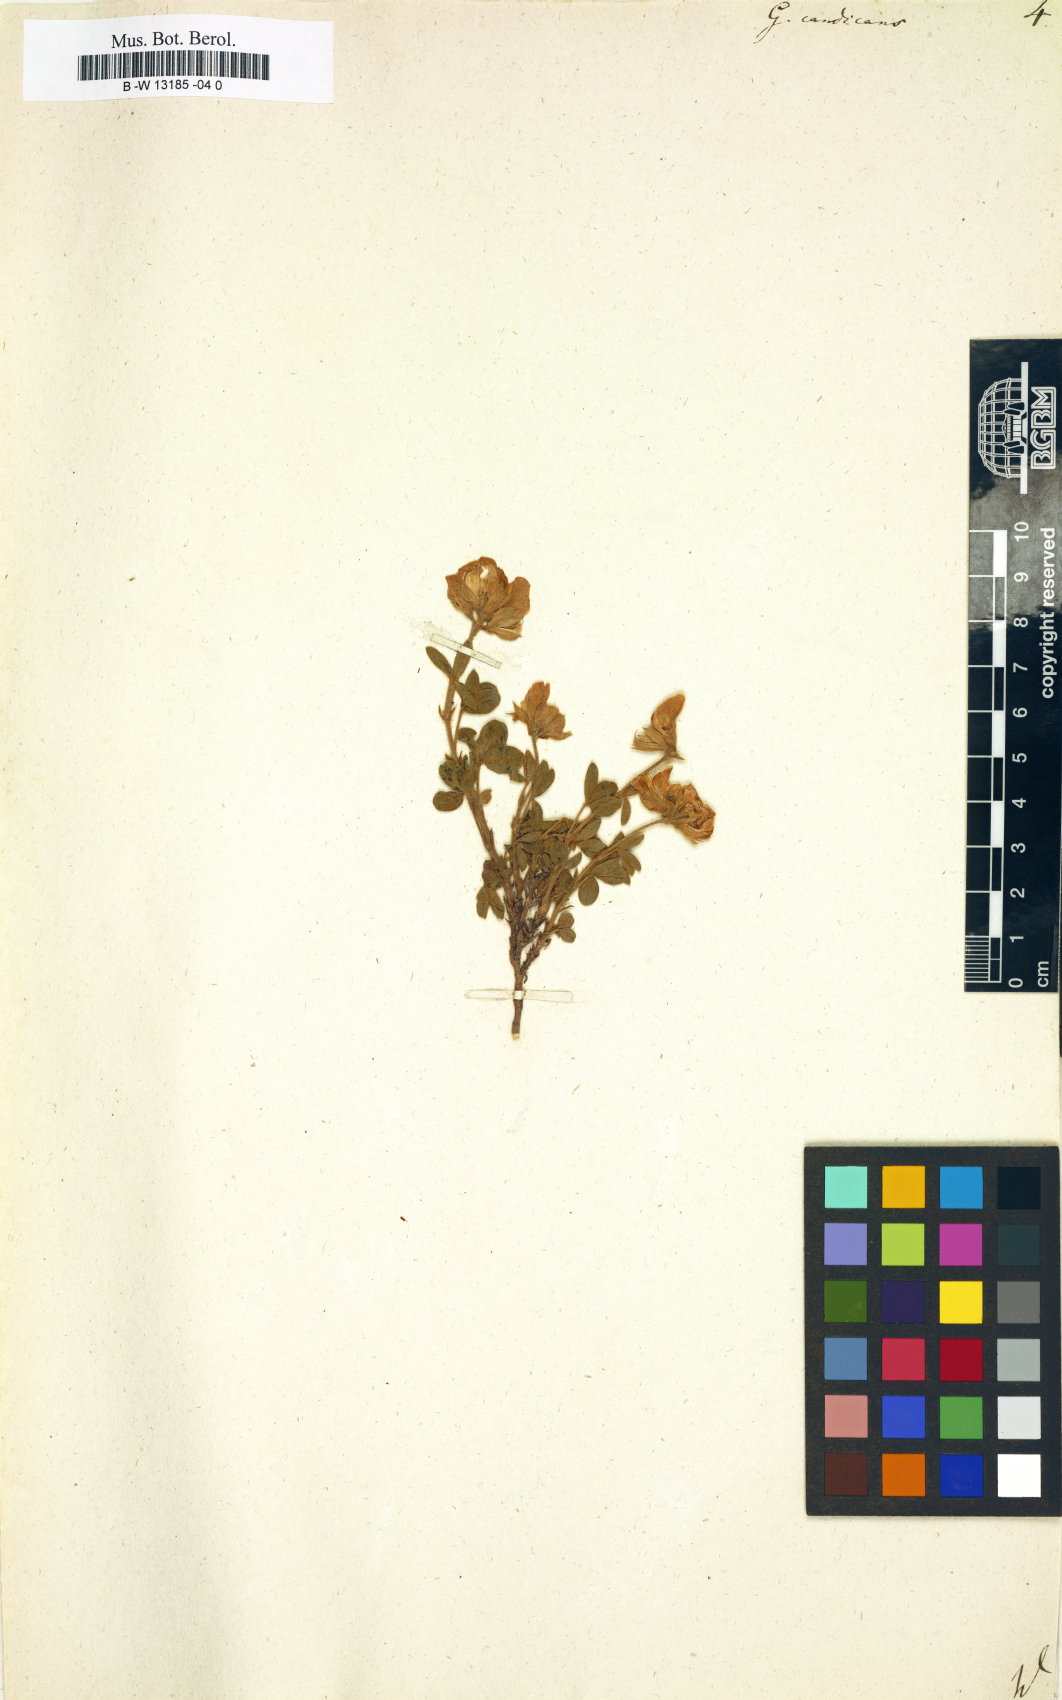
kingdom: Plantae
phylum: Tracheophyta
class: Magnoliopsida
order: Fabales
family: Fabaceae
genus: Genista
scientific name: Genista monspessulana
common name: Montpellier broom
